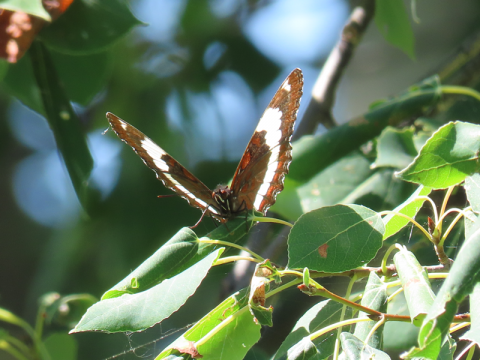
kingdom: Animalia
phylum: Arthropoda
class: Insecta
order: Lepidoptera
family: Nymphalidae
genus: Limenitis
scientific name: Limenitis arthemis
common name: Red-spotted Admiral
